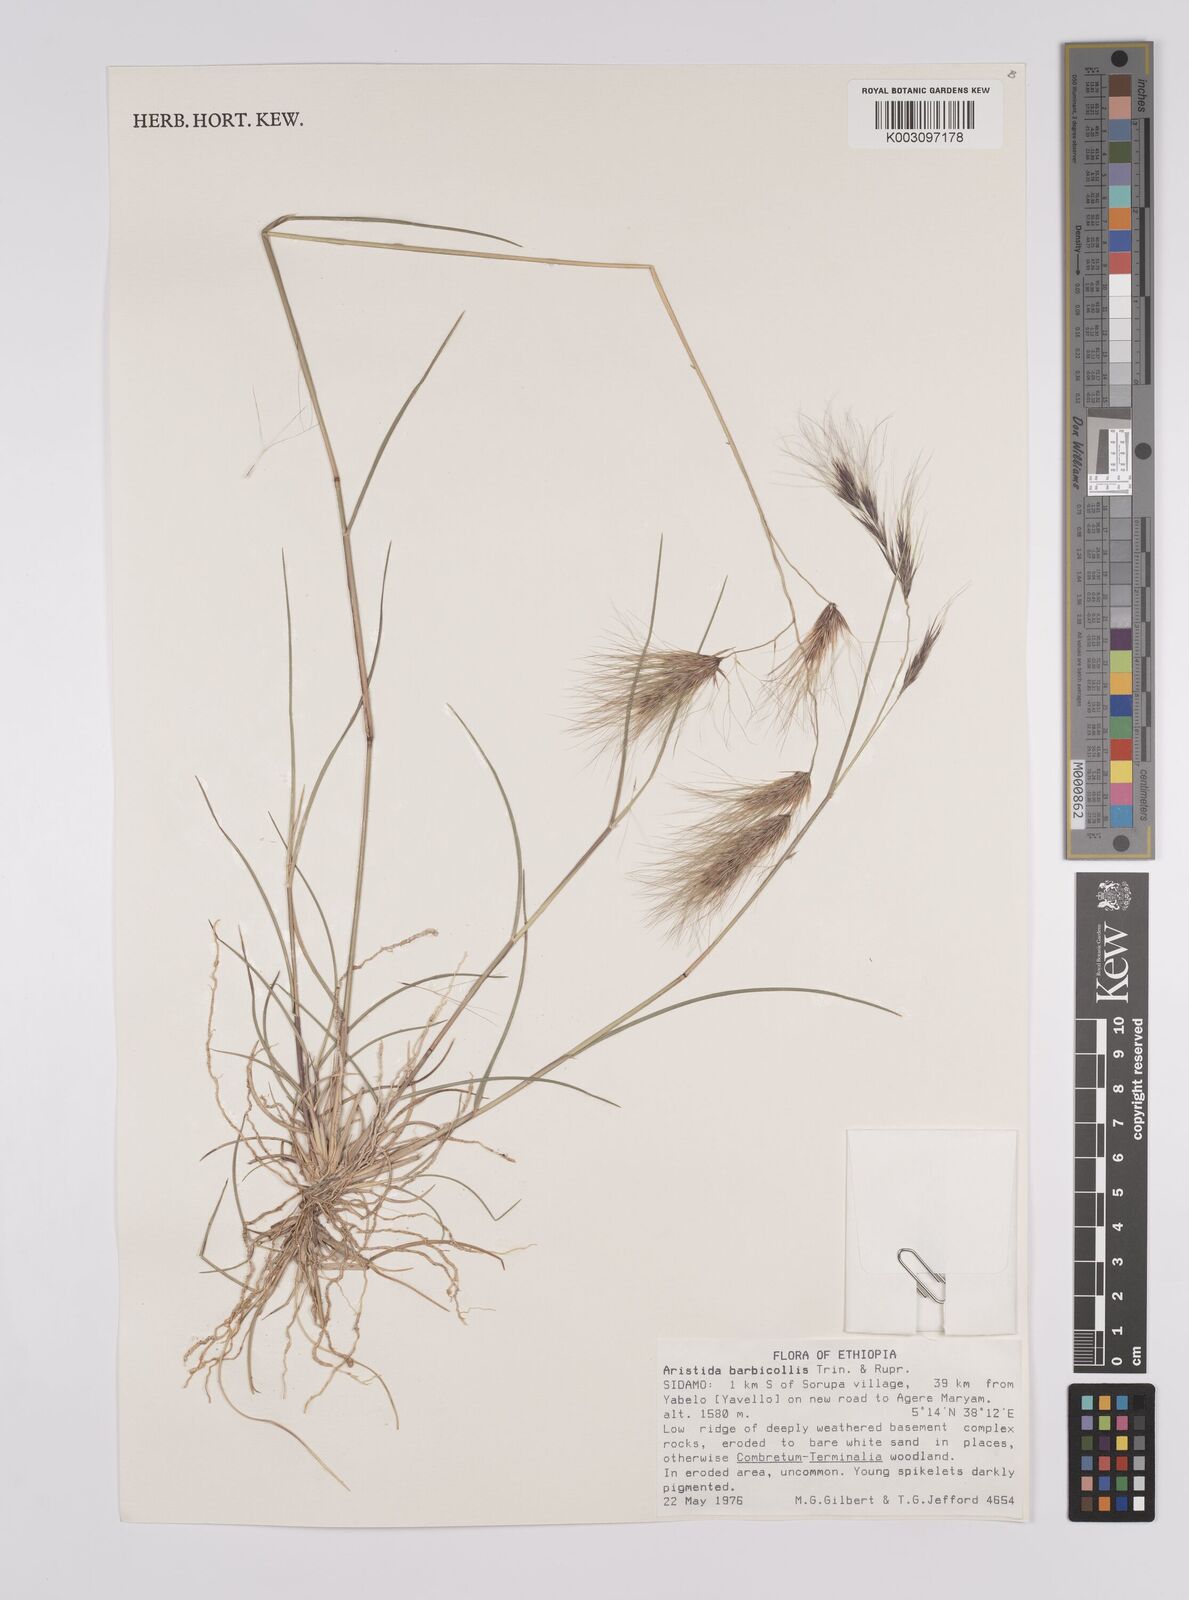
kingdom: Plantae
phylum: Tracheophyta
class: Liliopsida
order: Poales
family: Poaceae
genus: Aristida
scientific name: Aristida barbicollis
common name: Spreading prickle grass
